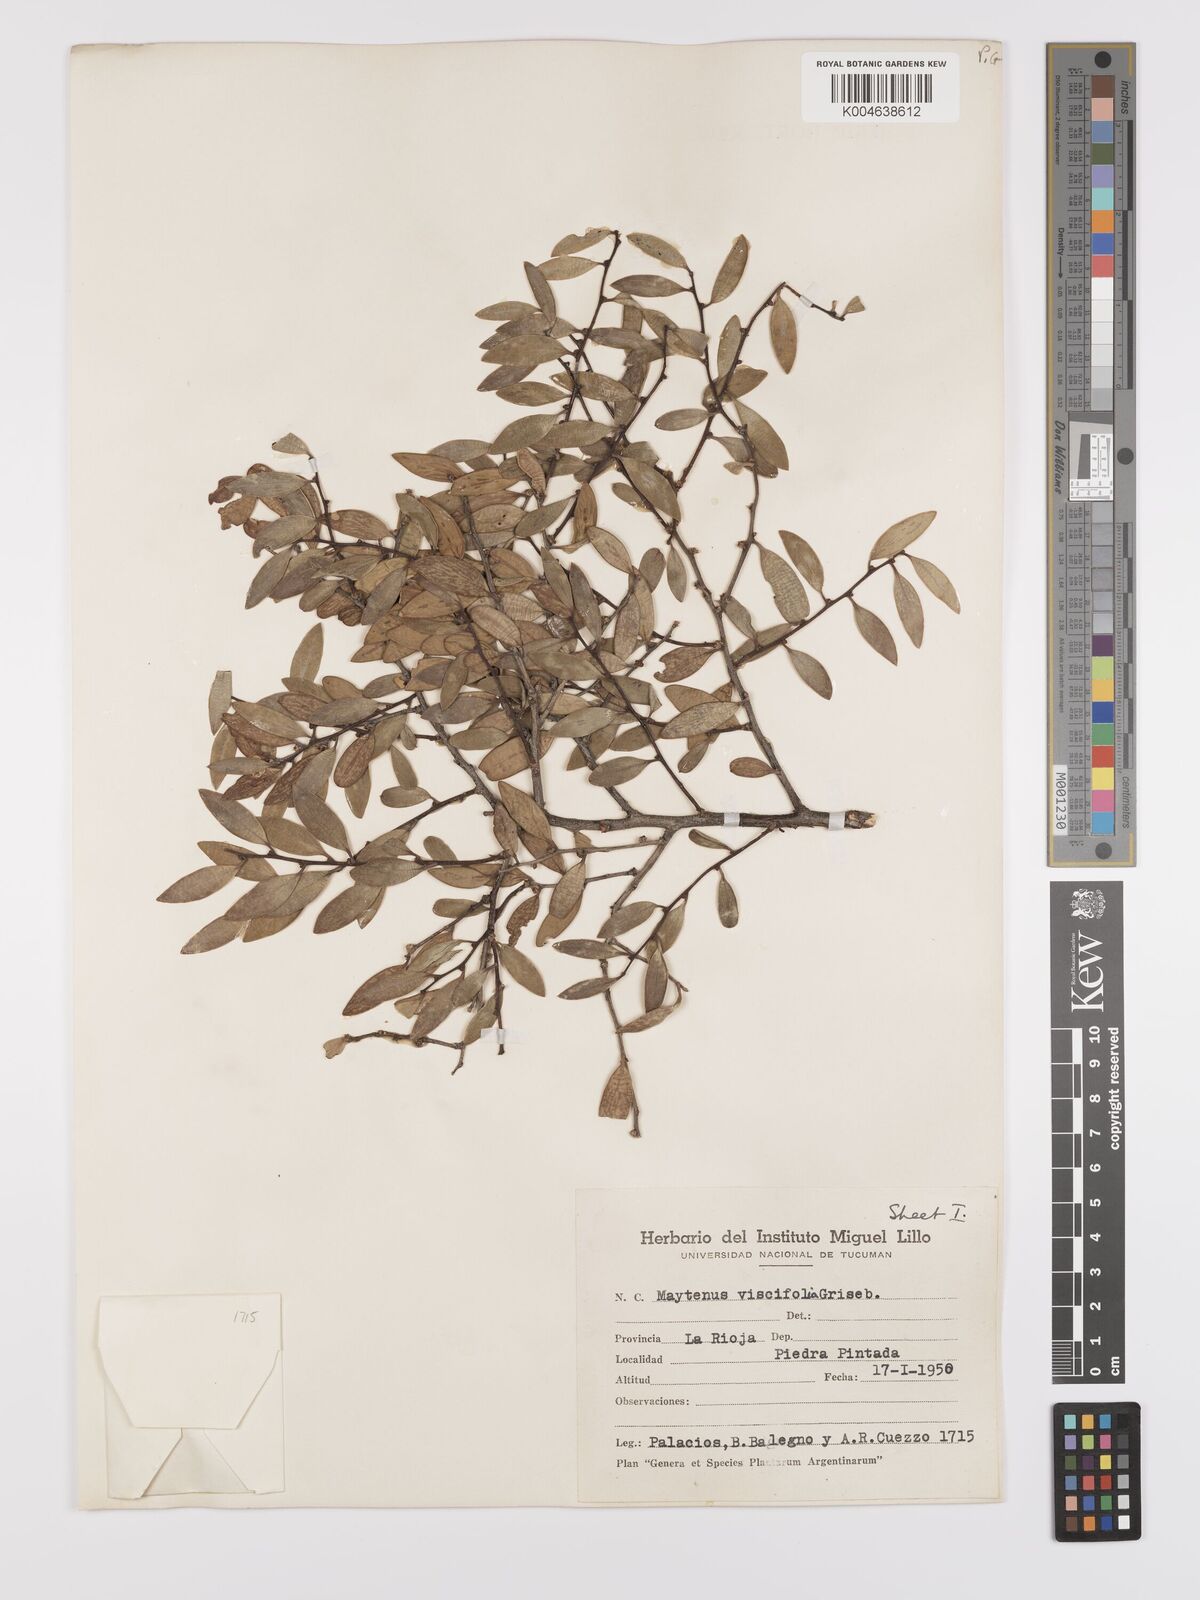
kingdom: Plantae
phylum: Tracheophyta
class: Magnoliopsida
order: Celastrales
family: Celastraceae
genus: Tricerma
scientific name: Tricerma viscifolium
